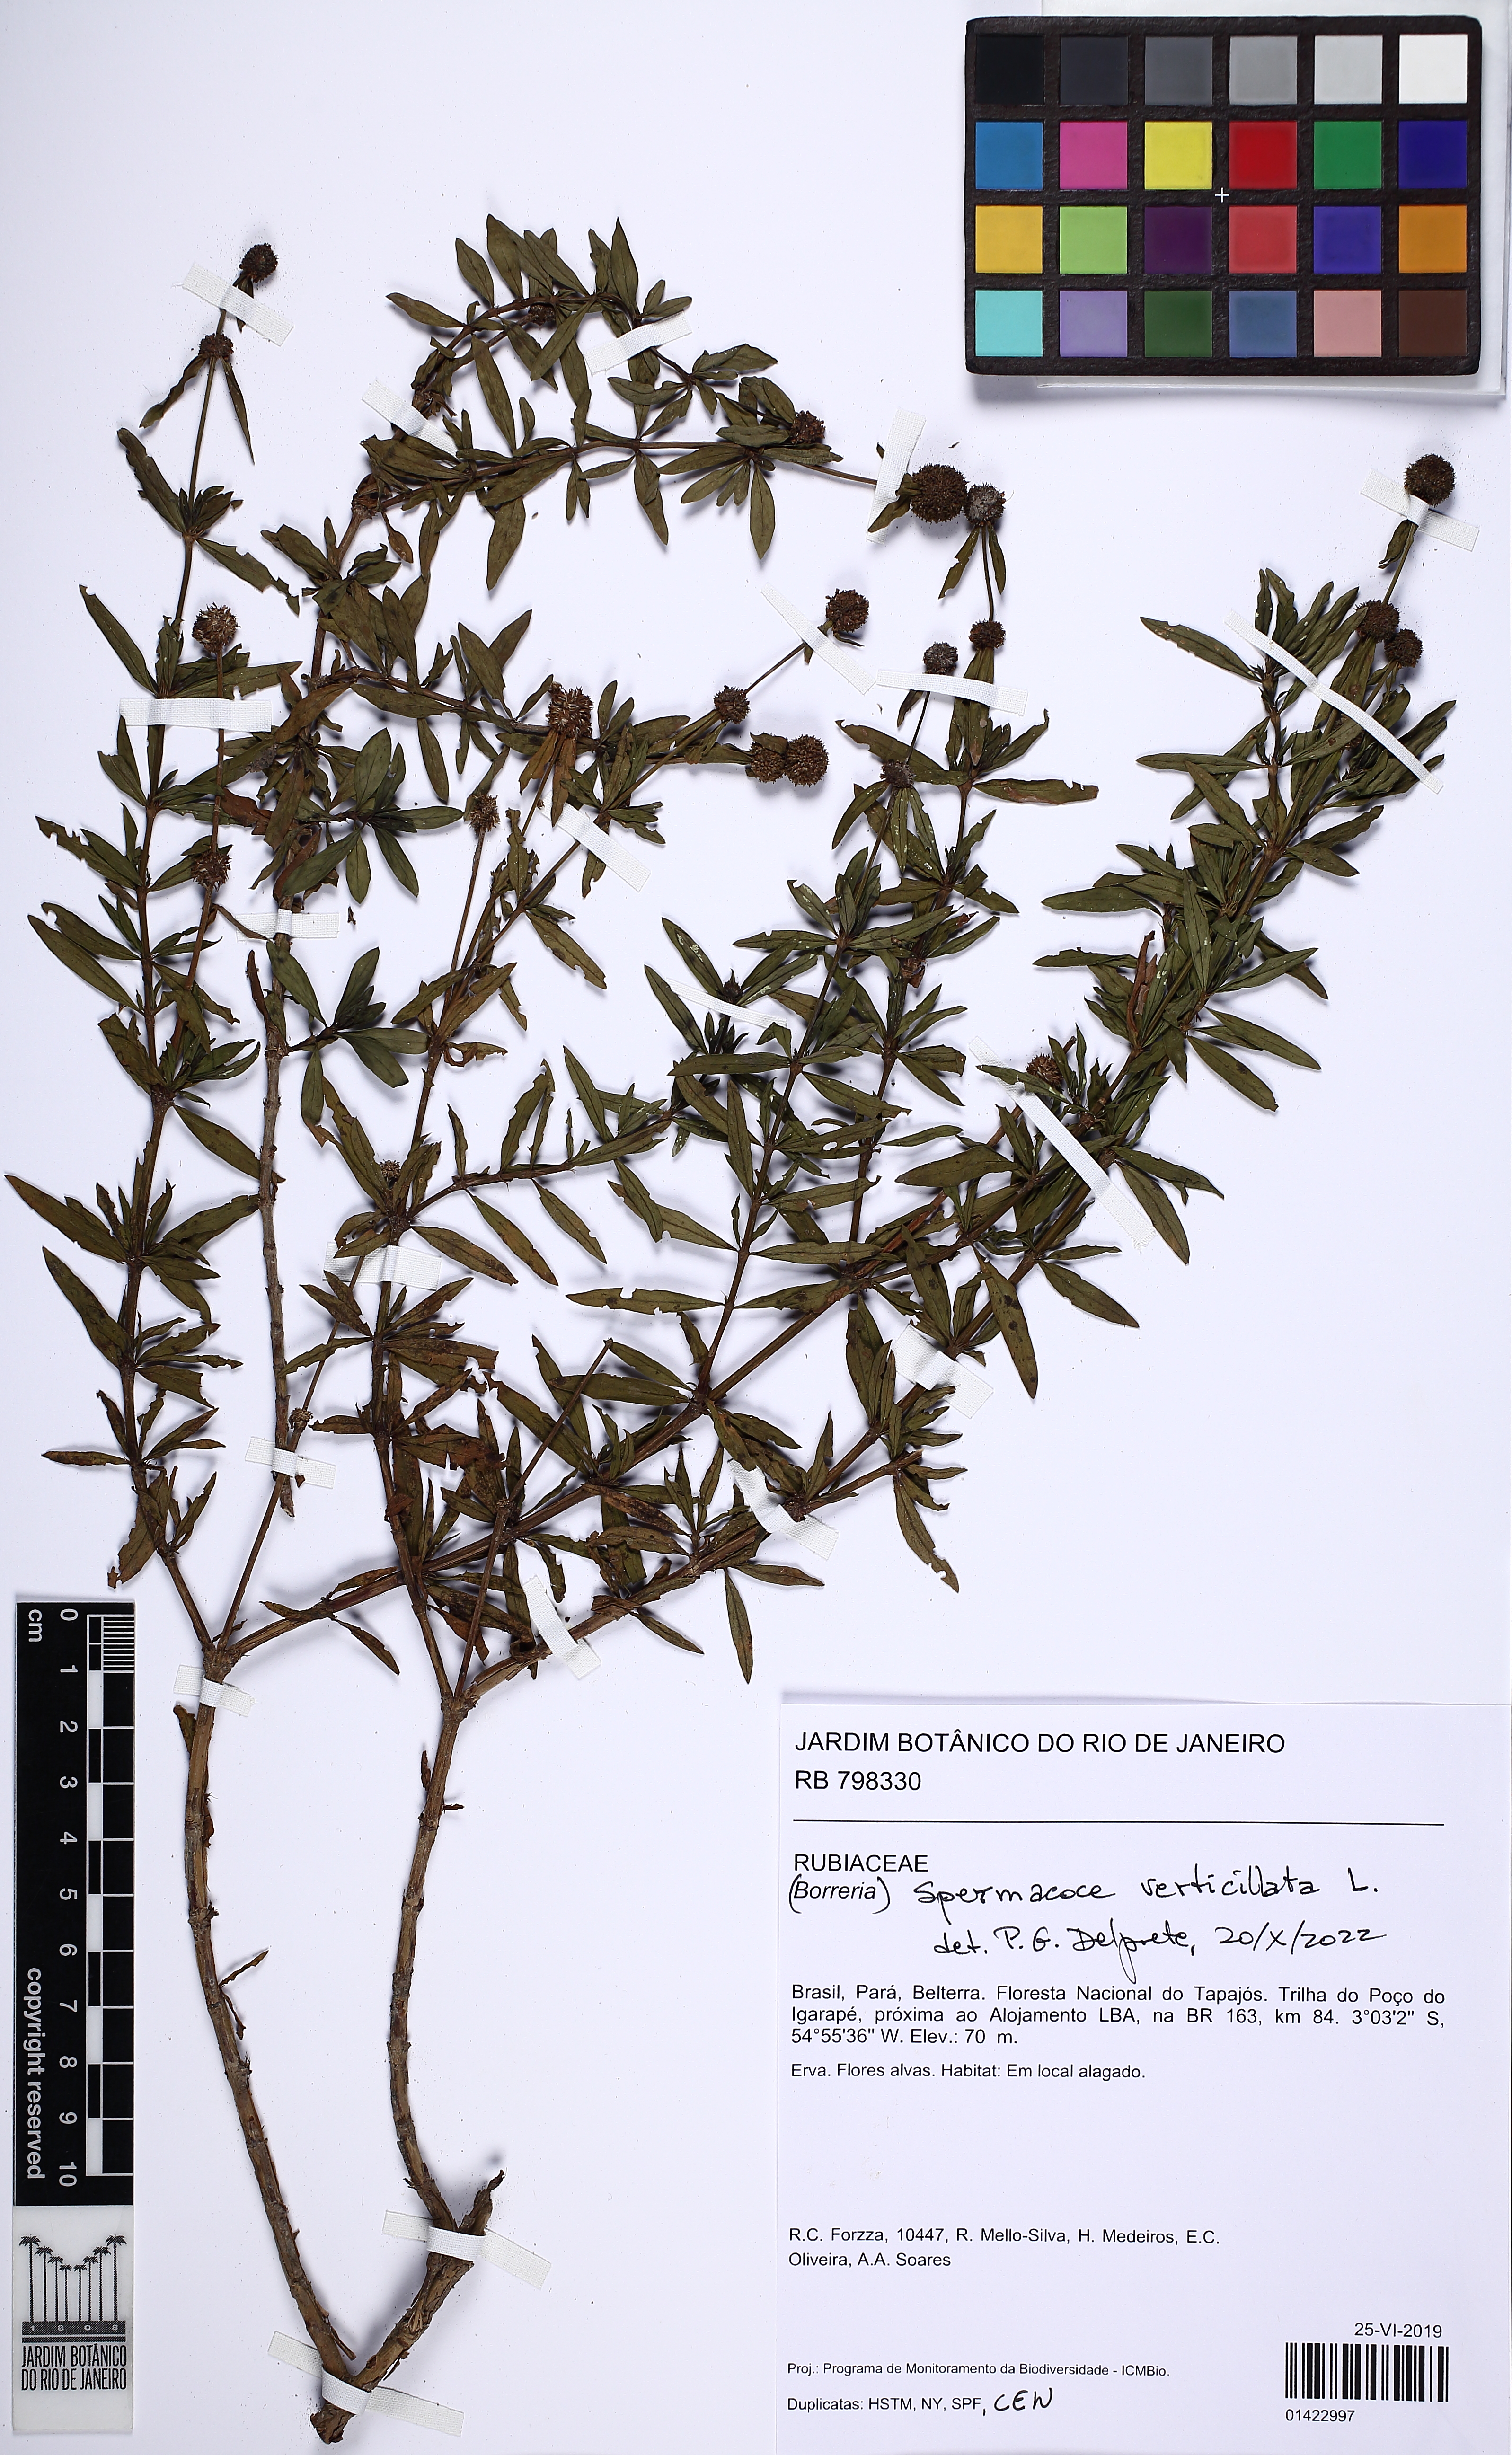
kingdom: Plantae
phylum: Tracheophyta
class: Magnoliopsida
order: Gentianales
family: Rubiaceae
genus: Spermacoce
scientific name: Spermacoce verticillata
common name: Shrubby false buttonweed
